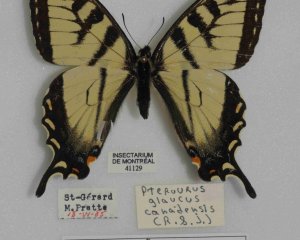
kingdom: Animalia
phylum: Arthropoda
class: Insecta
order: Lepidoptera
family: Papilionidae
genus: Pterourus
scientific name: Pterourus canadensis
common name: Canadian Tiger Swallowtail
